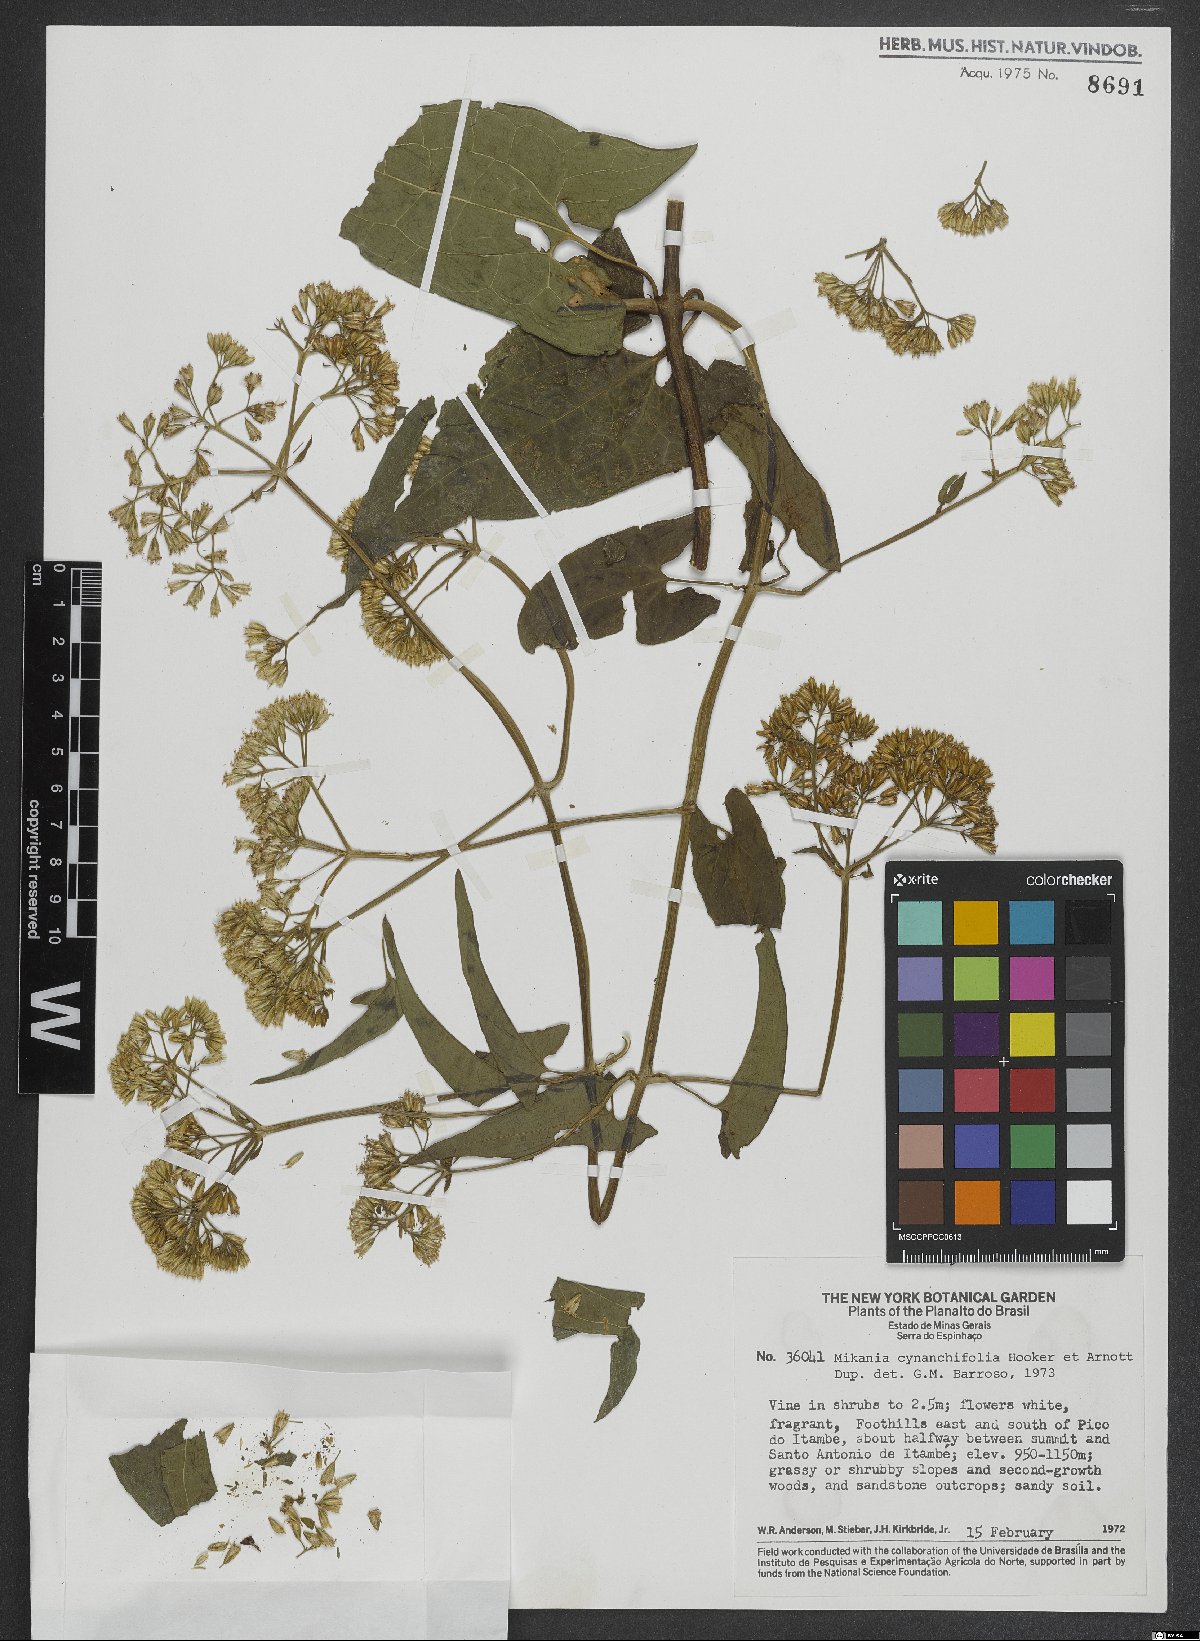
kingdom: Plantae
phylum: Tracheophyta
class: Magnoliopsida
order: Asterales
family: Asteraceae
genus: Mikania
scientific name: Mikania cynanchifolia
